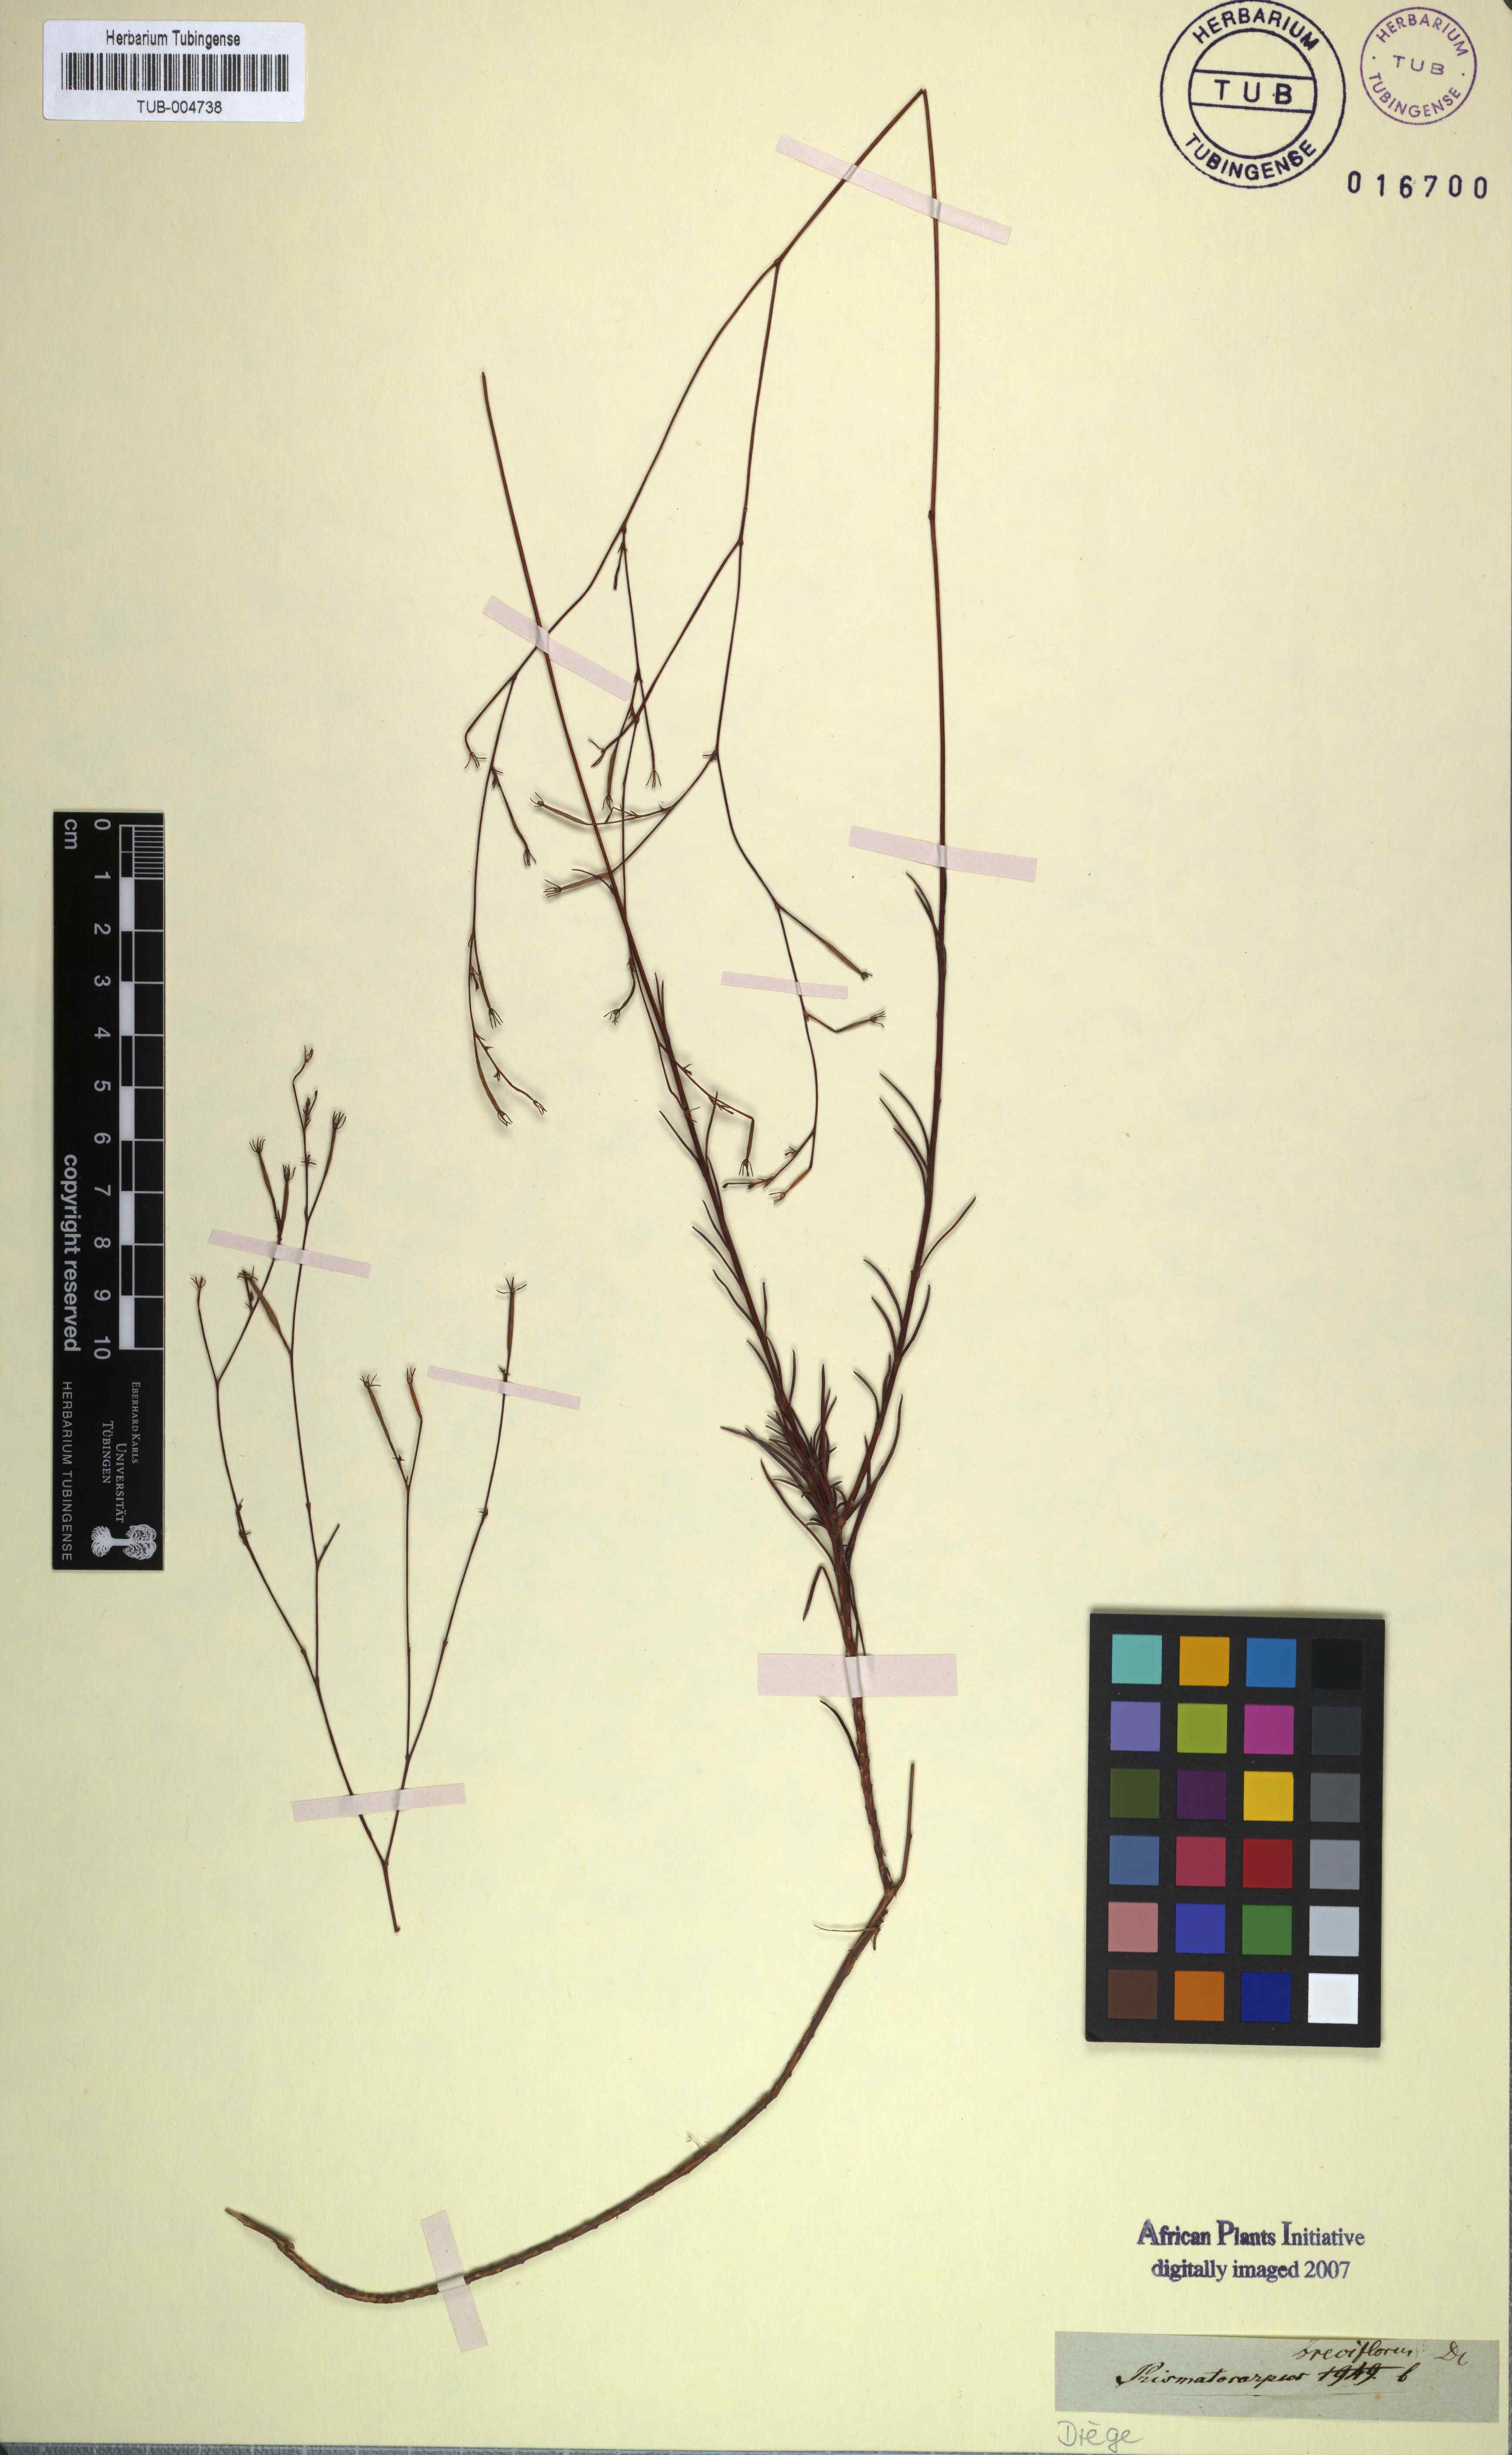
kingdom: Plantae
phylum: Tracheophyta
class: Magnoliopsida
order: Asterales
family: Campanulaceae
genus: Prismatocarpus
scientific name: Prismatocarpus brevilobus
